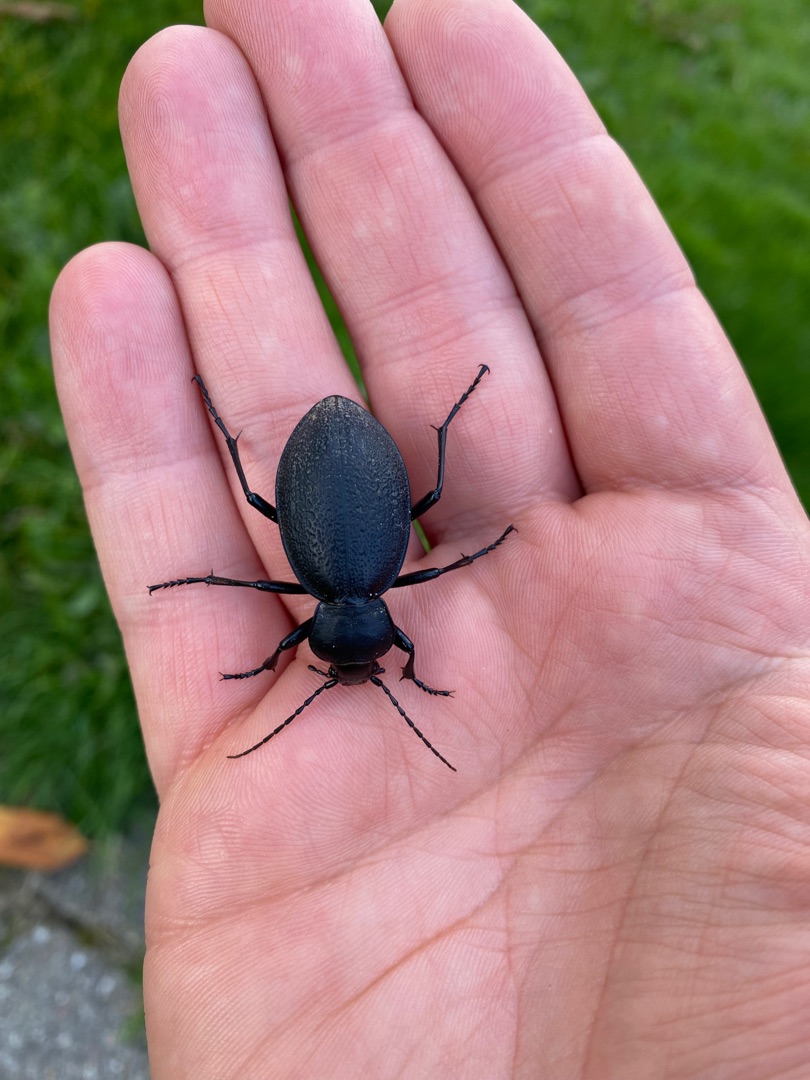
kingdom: Animalia
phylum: Arthropoda
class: Insecta
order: Coleoptera
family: Carabidae
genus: Carabus
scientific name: Carabus coriaceus
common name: Læderløber
